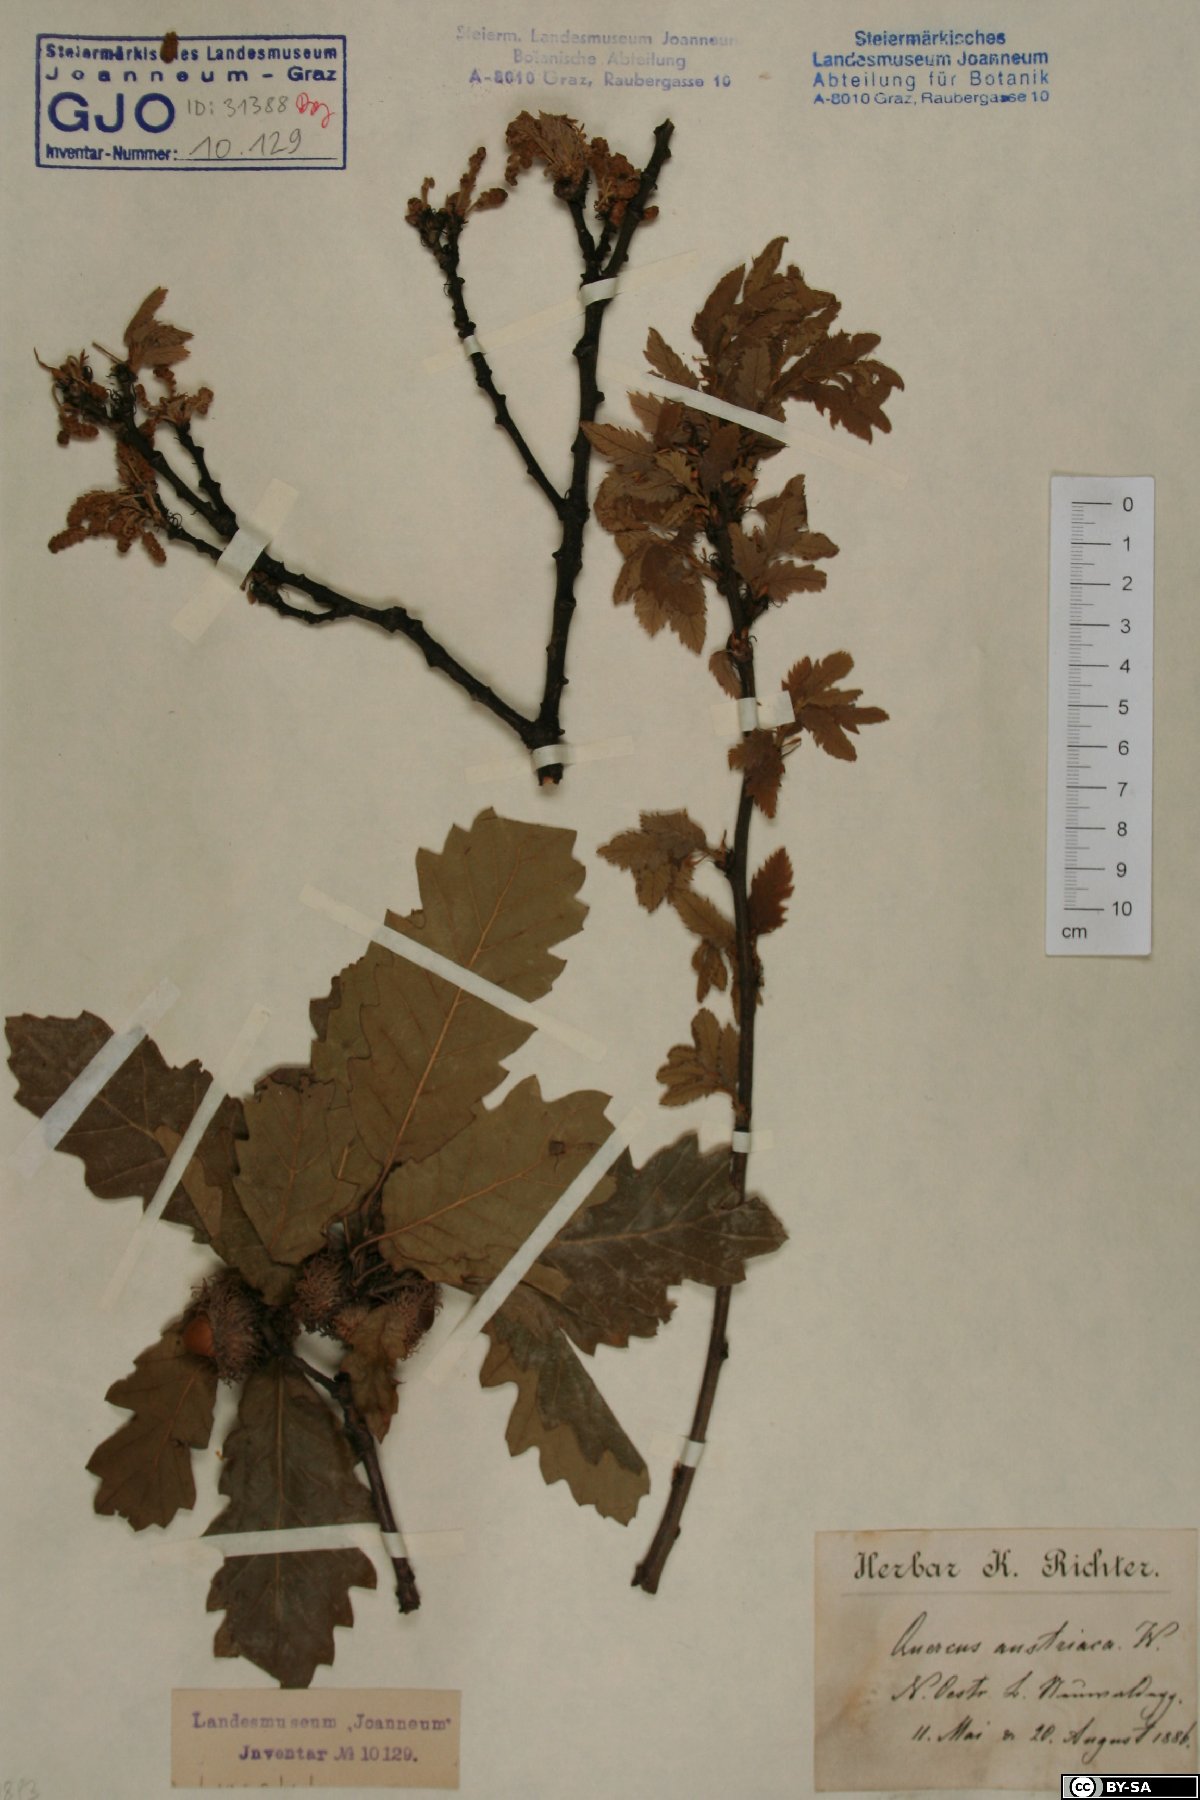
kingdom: Plantae
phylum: Tracheophyta
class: Magnoliopsida
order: Fagales
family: Fagaceae
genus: Quercus
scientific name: Quercus cerris
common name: Turkey oak
